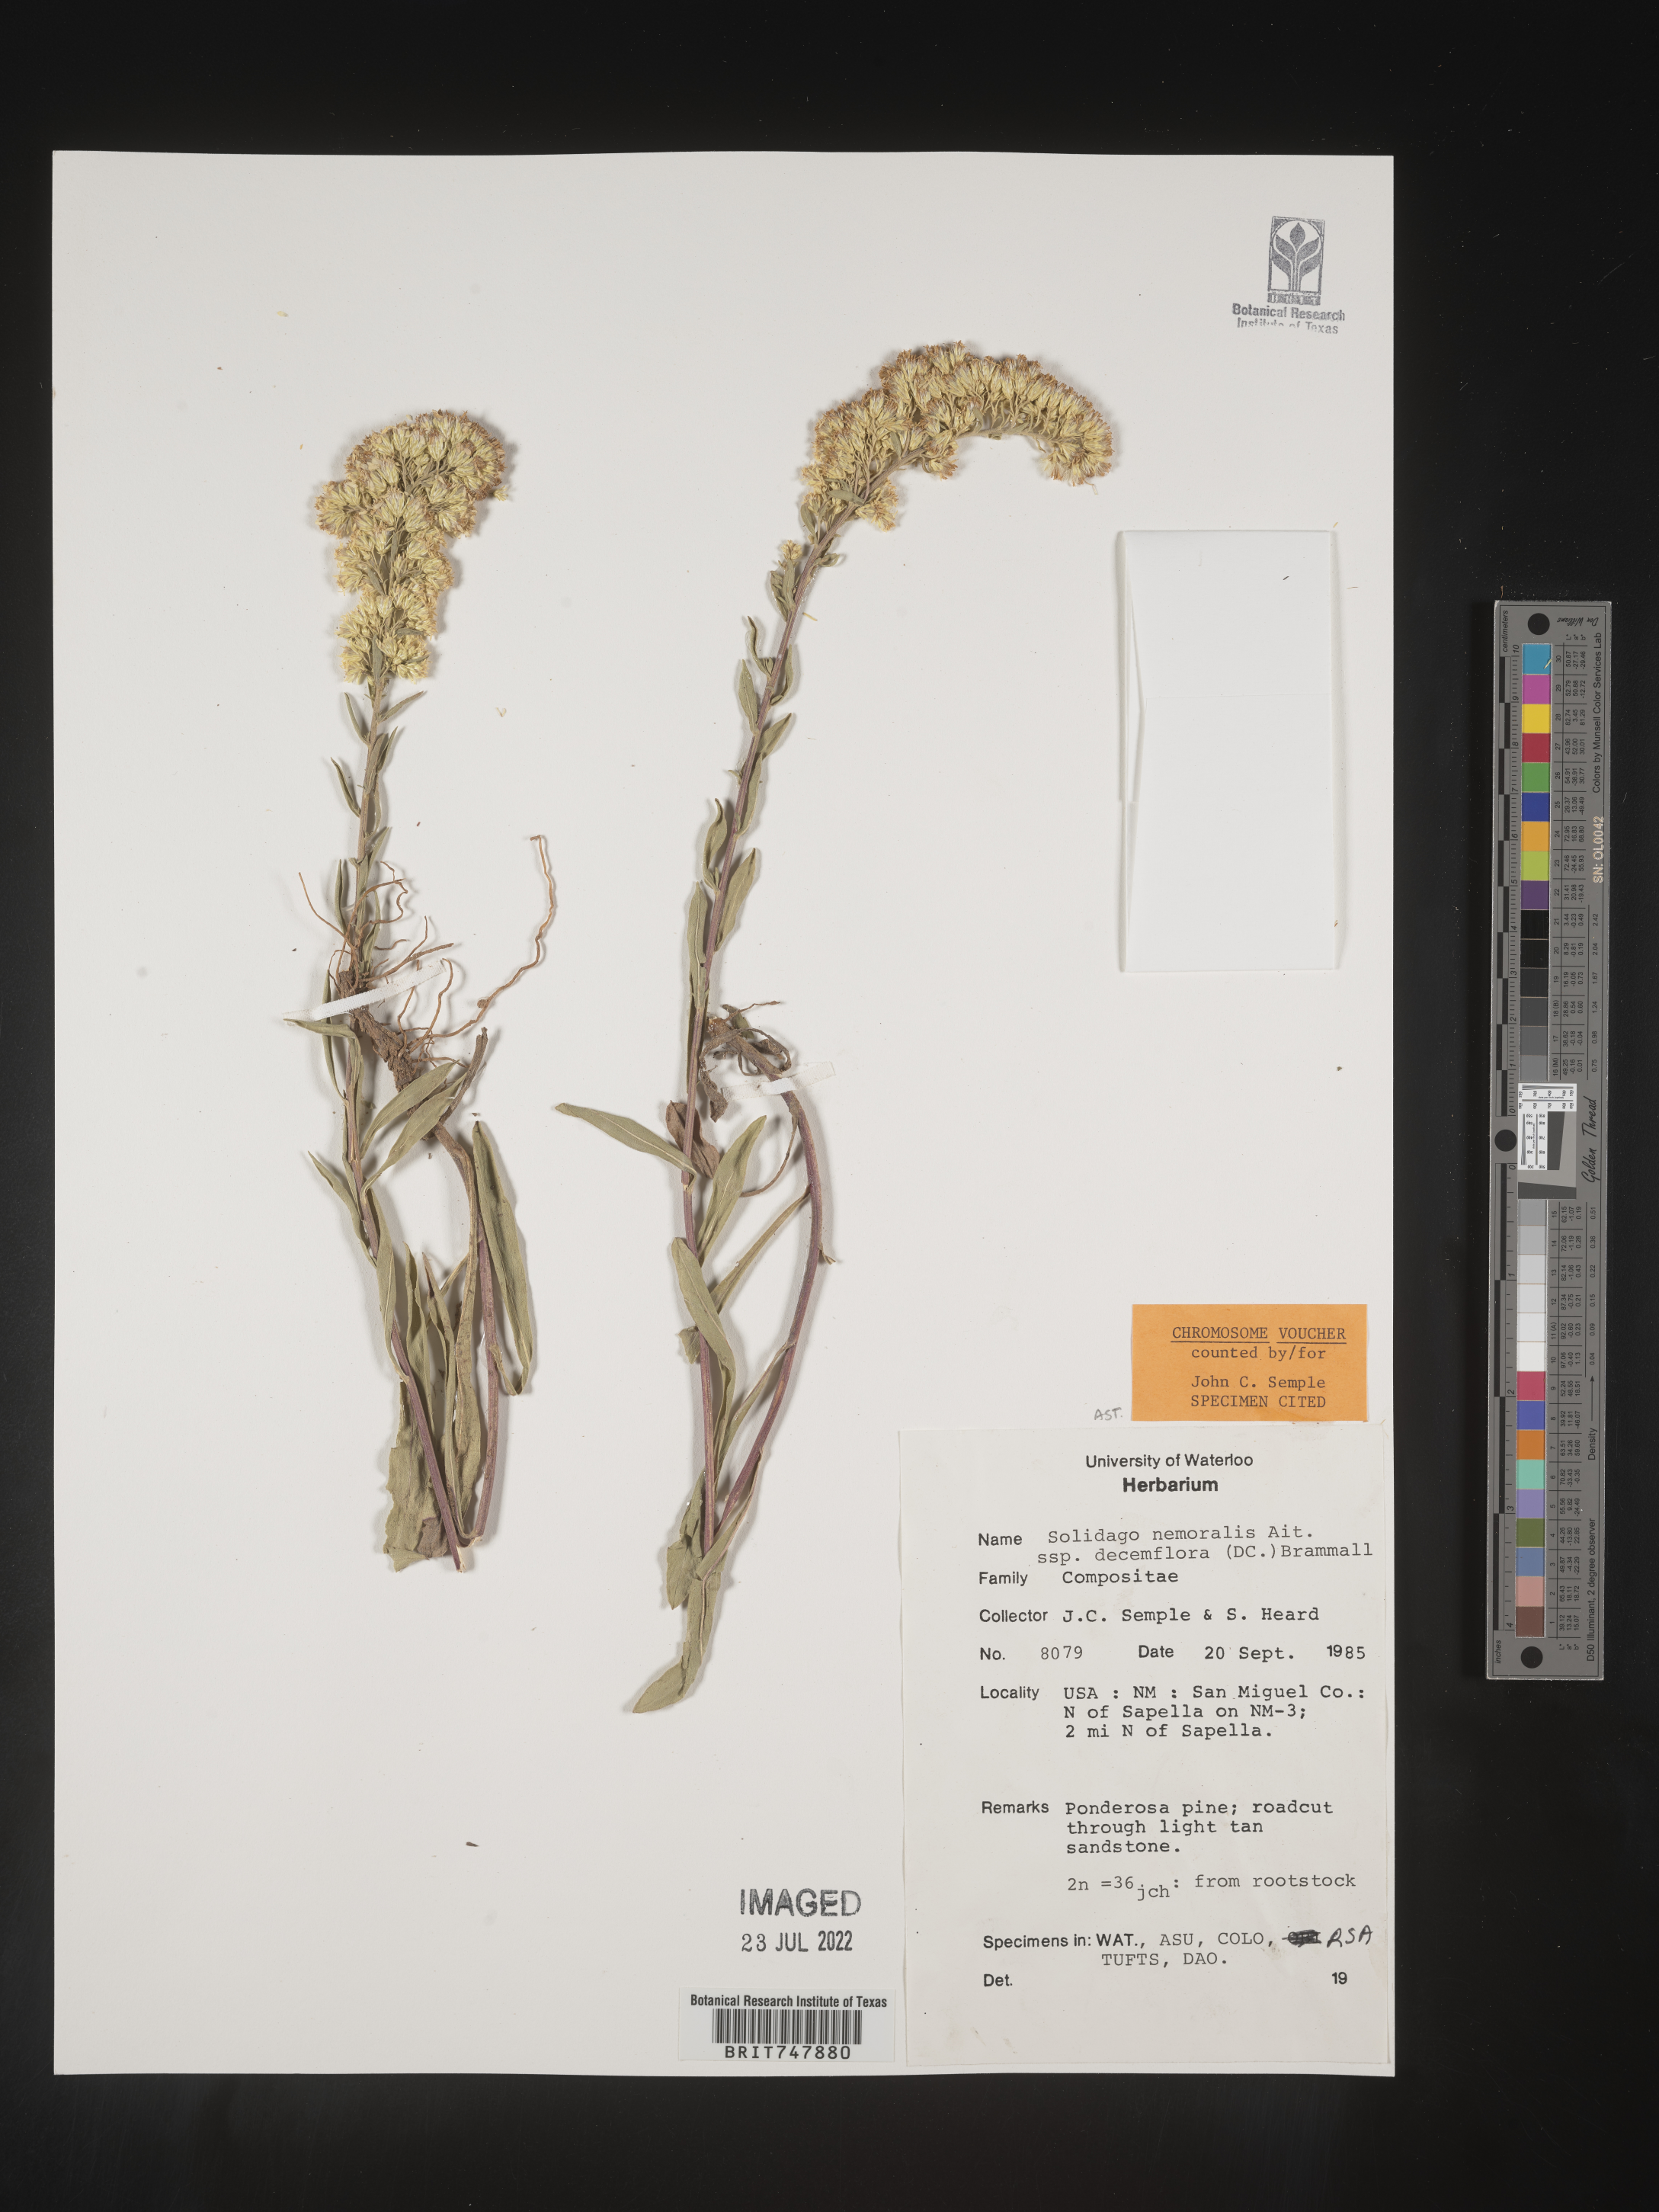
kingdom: Plantae
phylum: Tracheophyta
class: Magnoliopsida
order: Asterales
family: Asteraceae
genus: Solidago
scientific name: Solidago nemoralis
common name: Grey goldenrod
